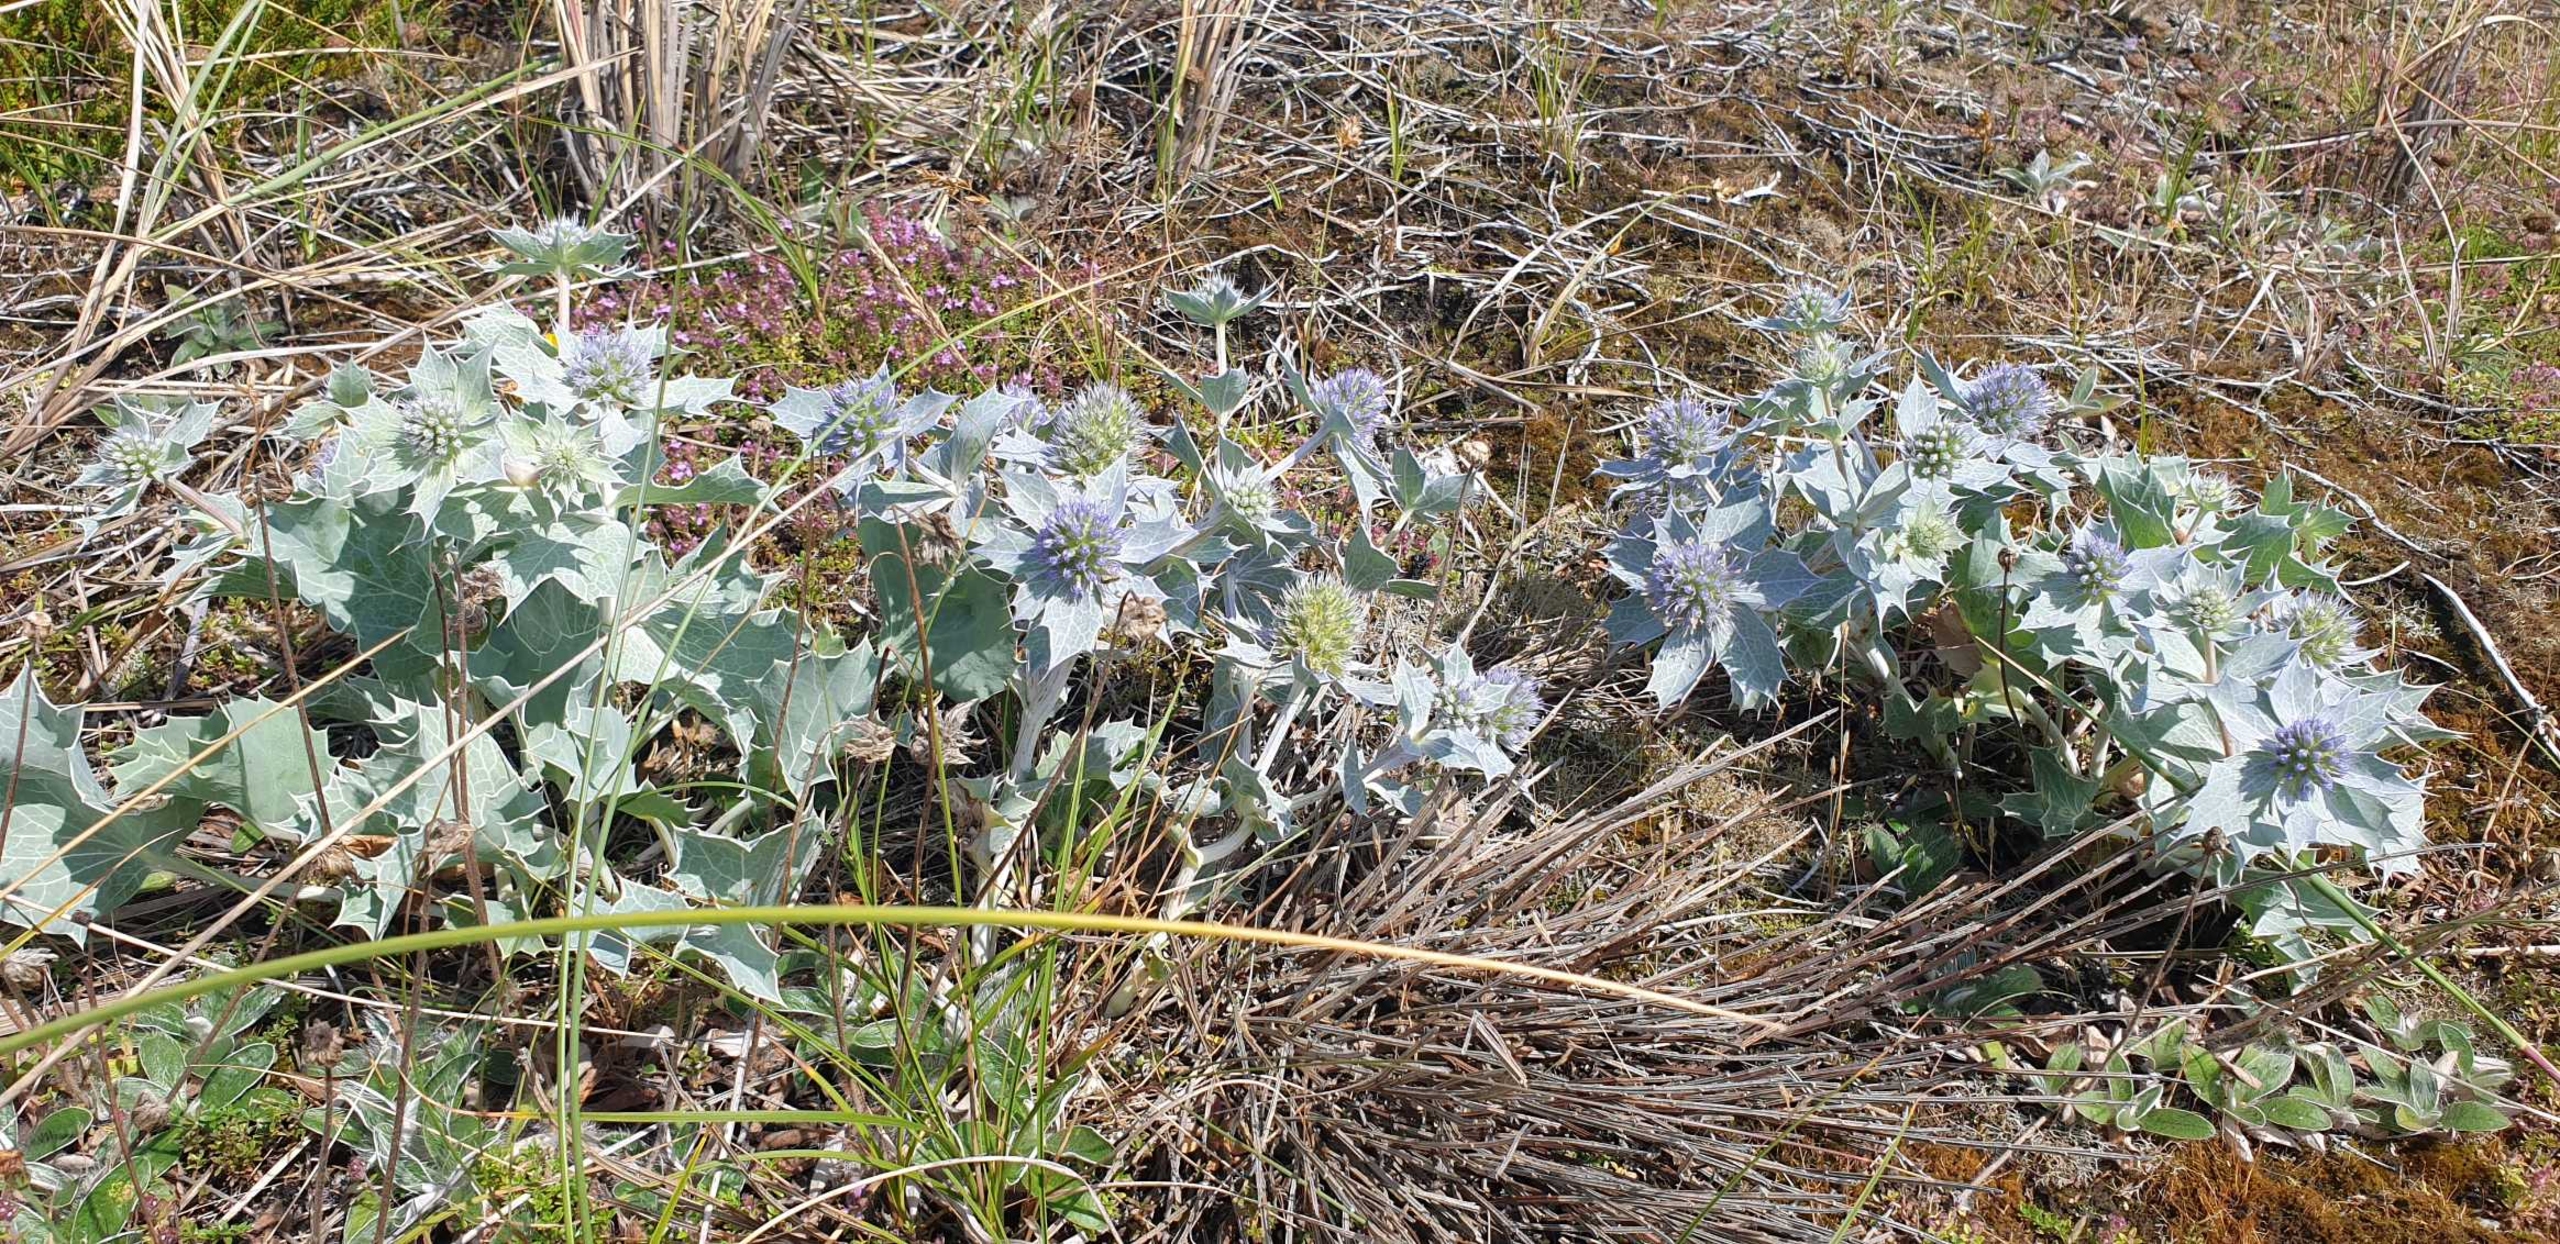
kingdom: Plantae
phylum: Tracheophyta
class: Magnoliopsida
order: Apiales
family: Apiaceae
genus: Eryngium
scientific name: Eryngium maritimum
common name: Strand-mandstro
